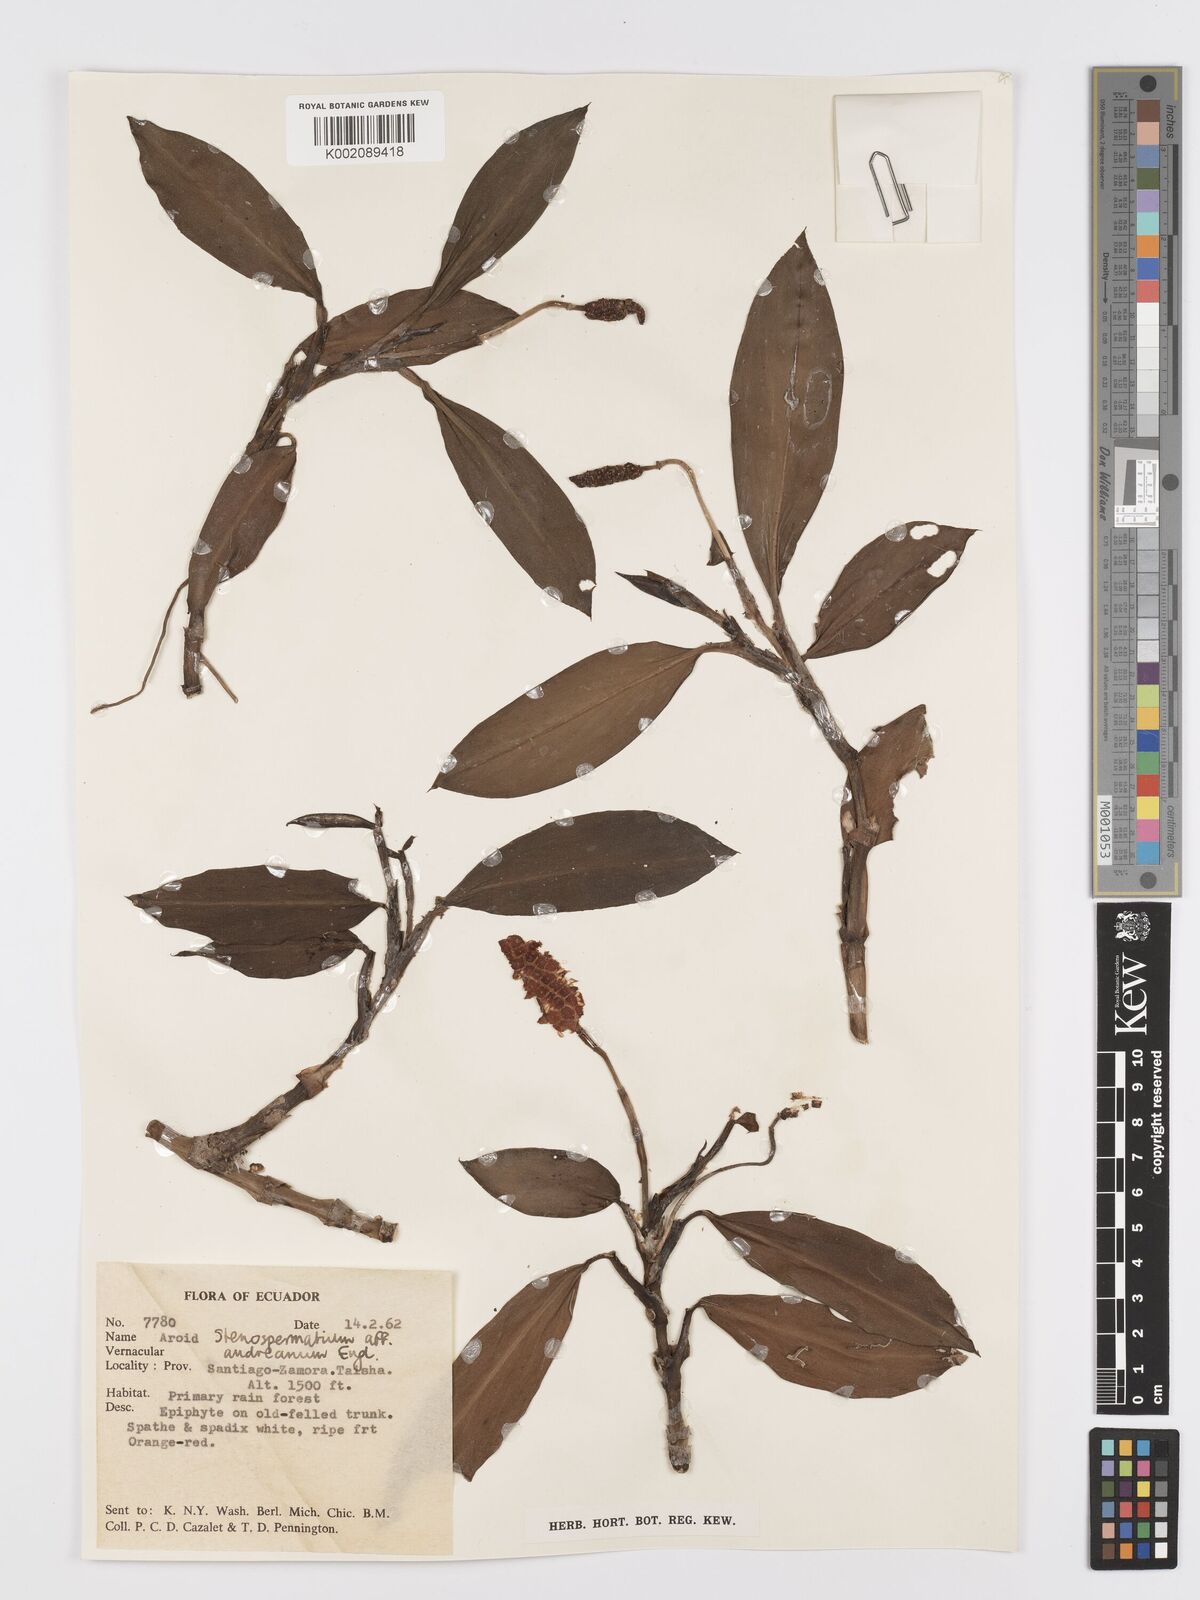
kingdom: Plantae
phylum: Tracheophyta
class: Liliopsida
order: Alismatales
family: Araceae
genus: Stenospermation
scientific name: Stenospermation andreanum
